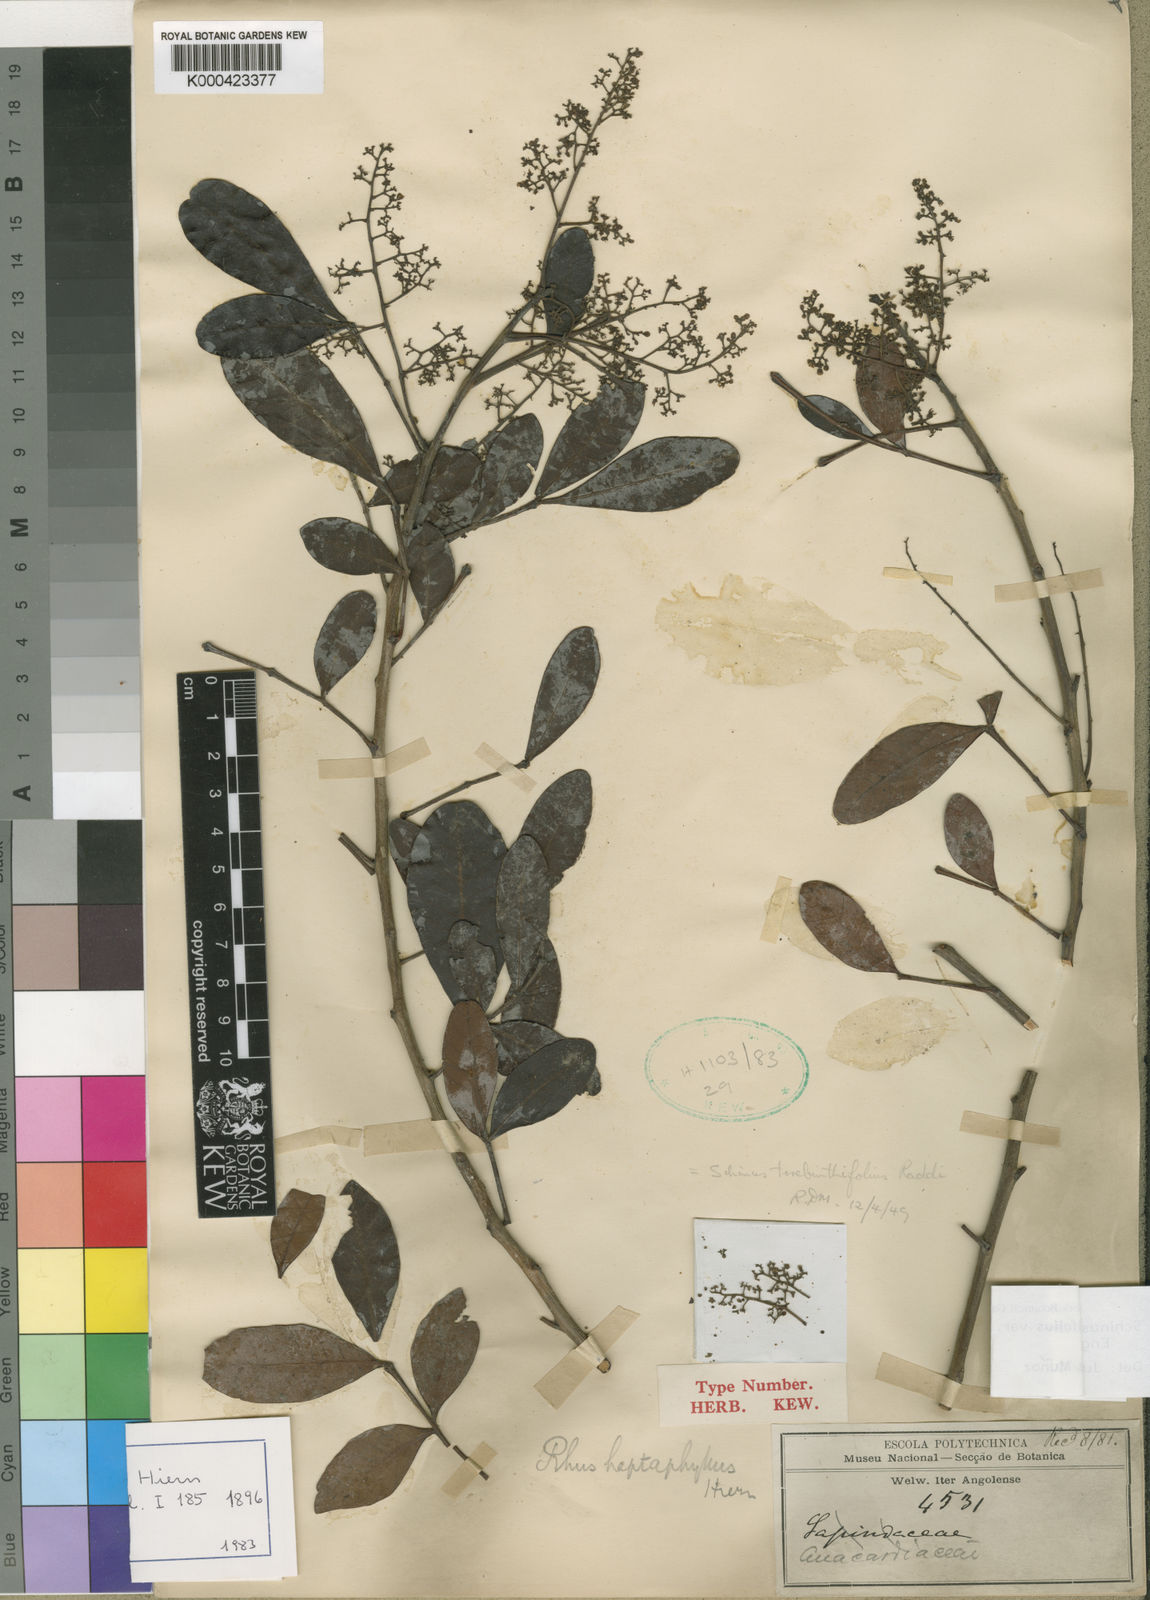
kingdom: Plantae
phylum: Tracheophyta
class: Magnoliopsida
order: Sapindales
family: Anacardiaceae
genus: Schinus
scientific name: Schinus terebinthifolia
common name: Brazilian peppertree
